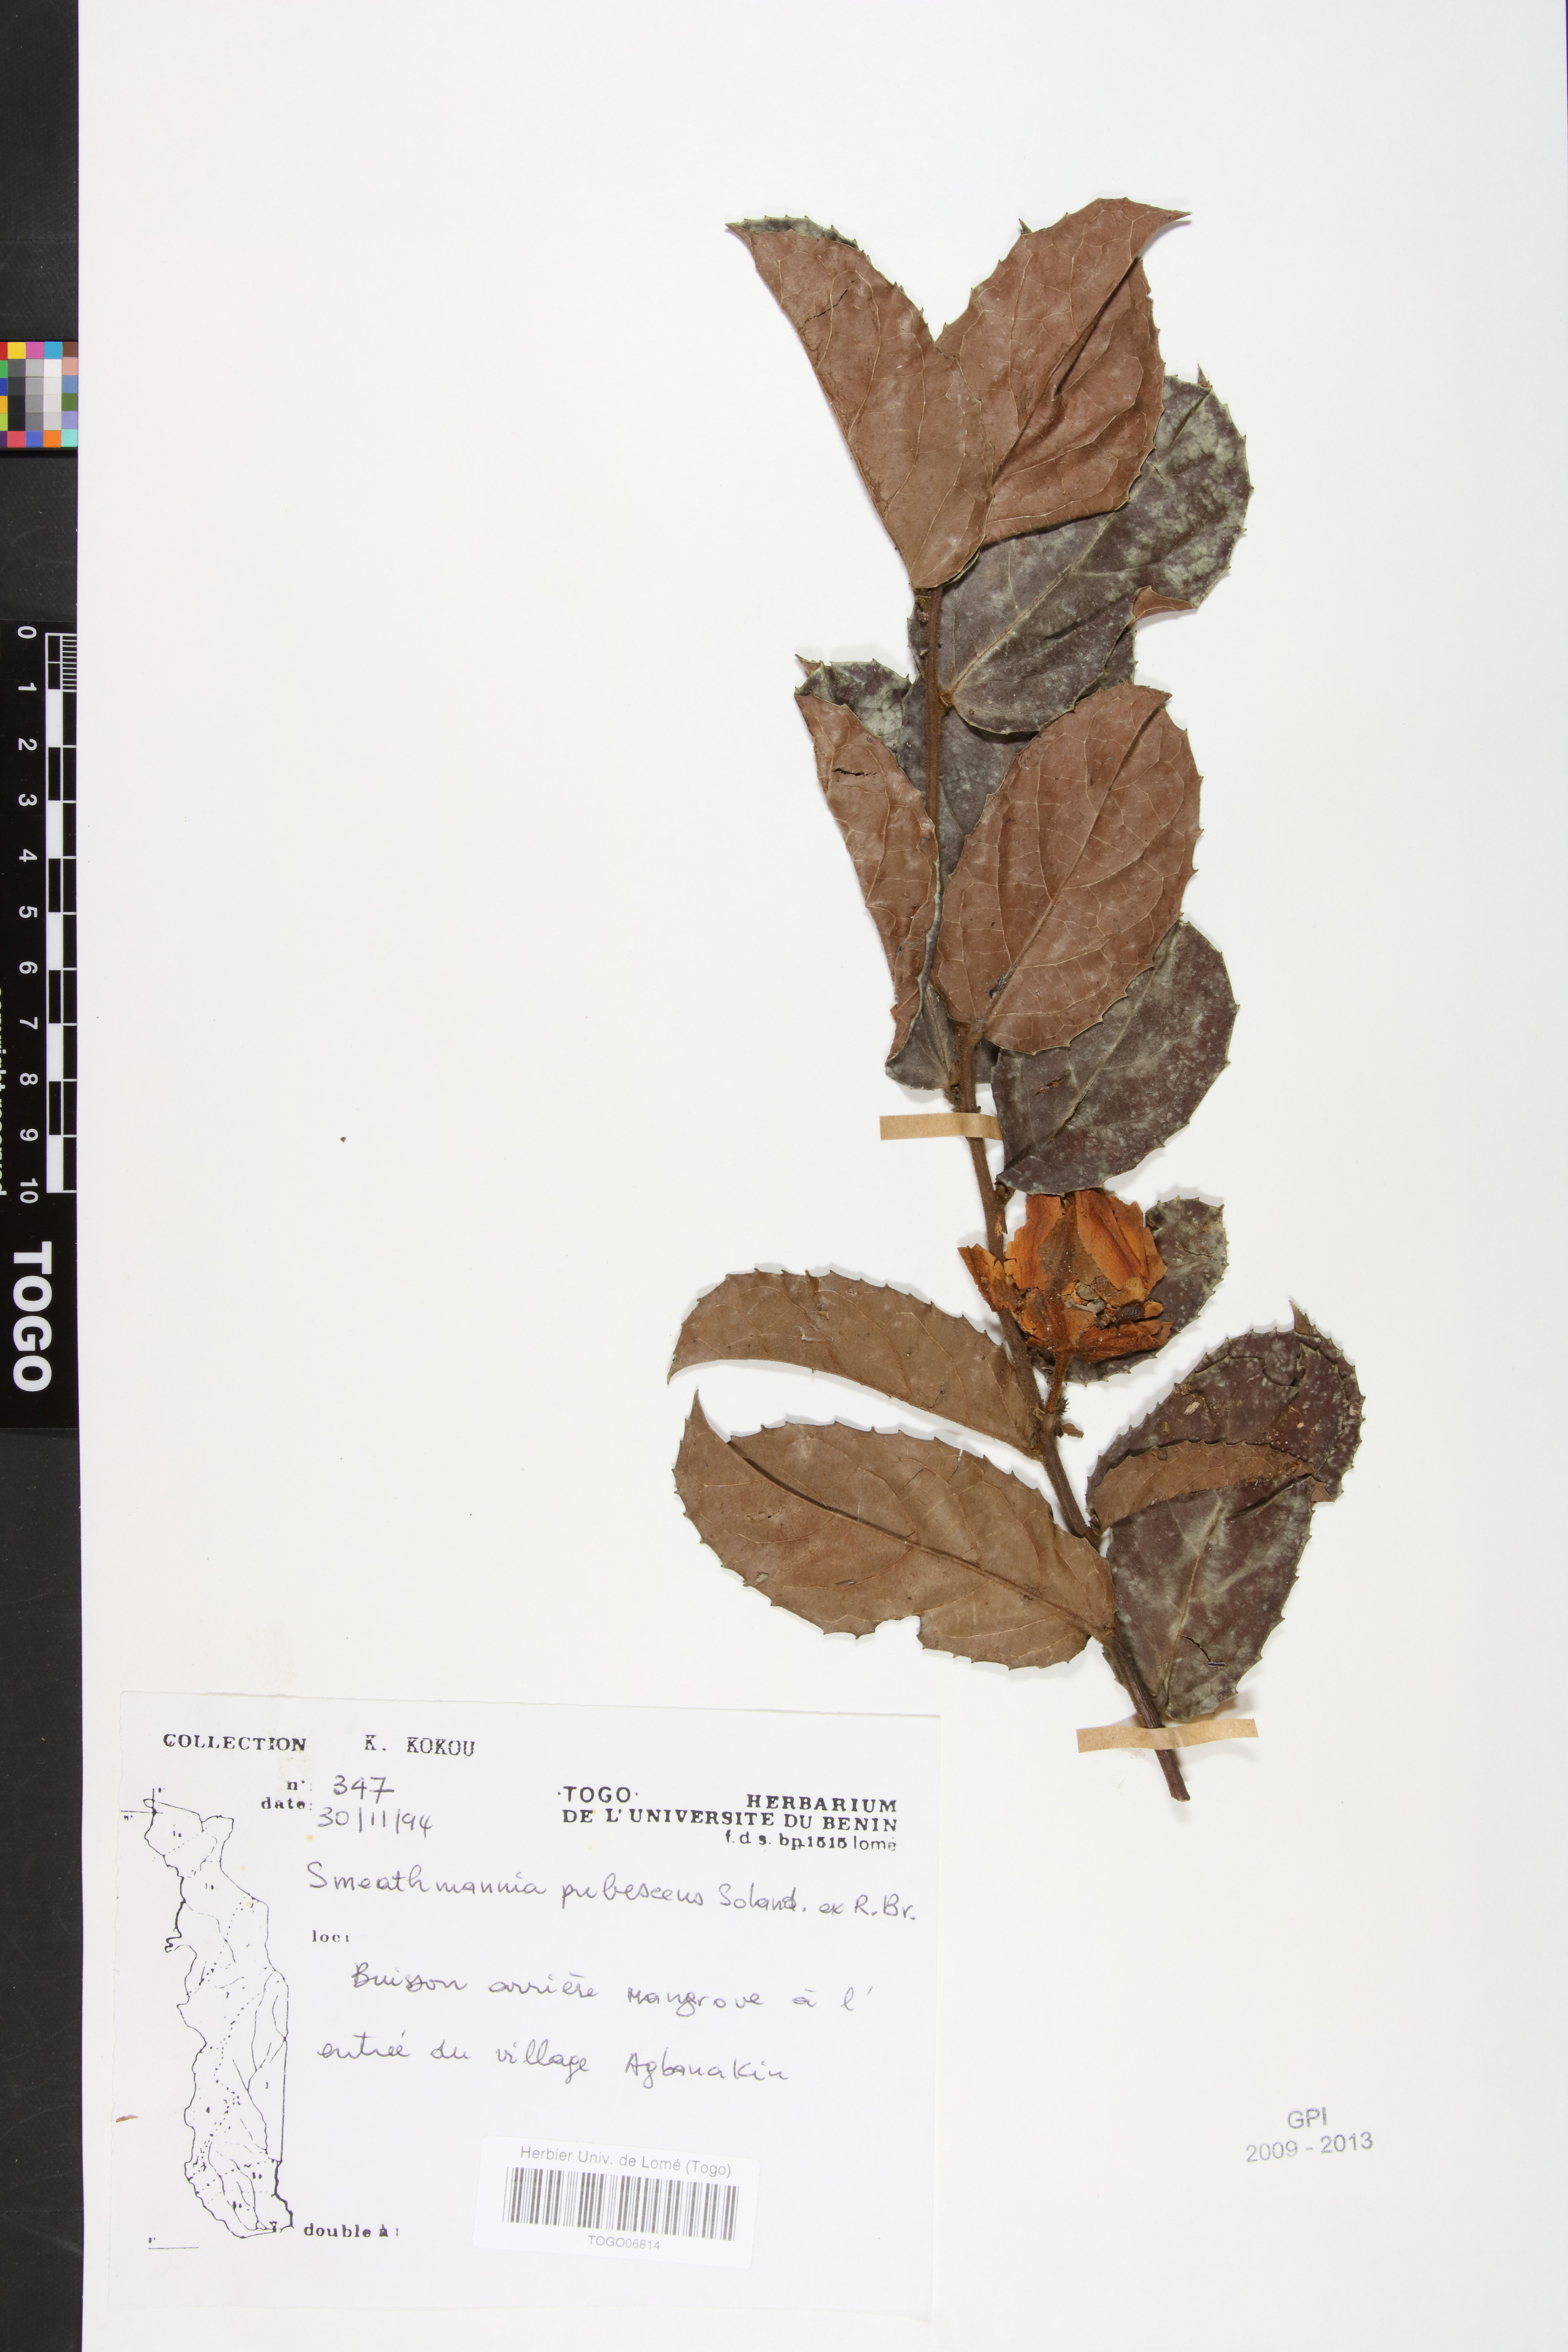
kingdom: Plantae
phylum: Tracheophyta
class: Magnoliopsida
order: Malpighiales
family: Passifloraceae
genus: Smeathmannia
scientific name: Smeathmannia pubescens
